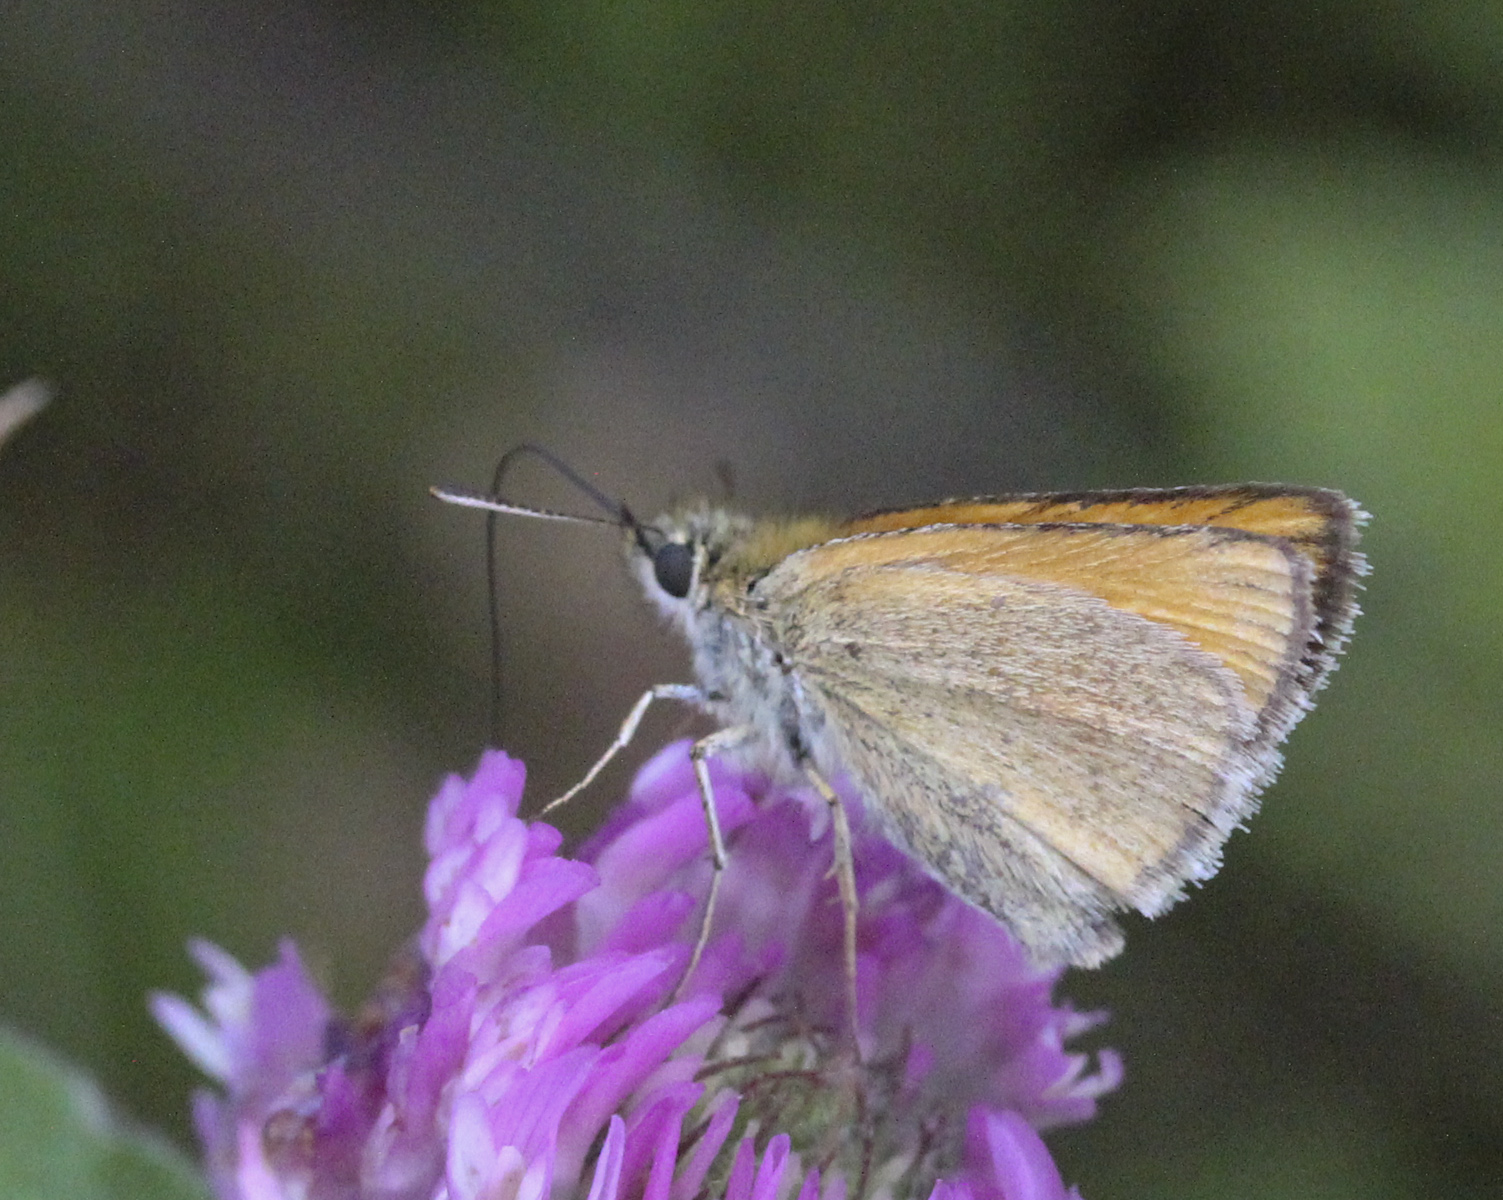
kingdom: Animalia
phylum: Arthropoda
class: Insecta
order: Lepidoptera
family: Hesperiidae
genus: Thymelicus
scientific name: Thymelicus lineola
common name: Essex skipper
